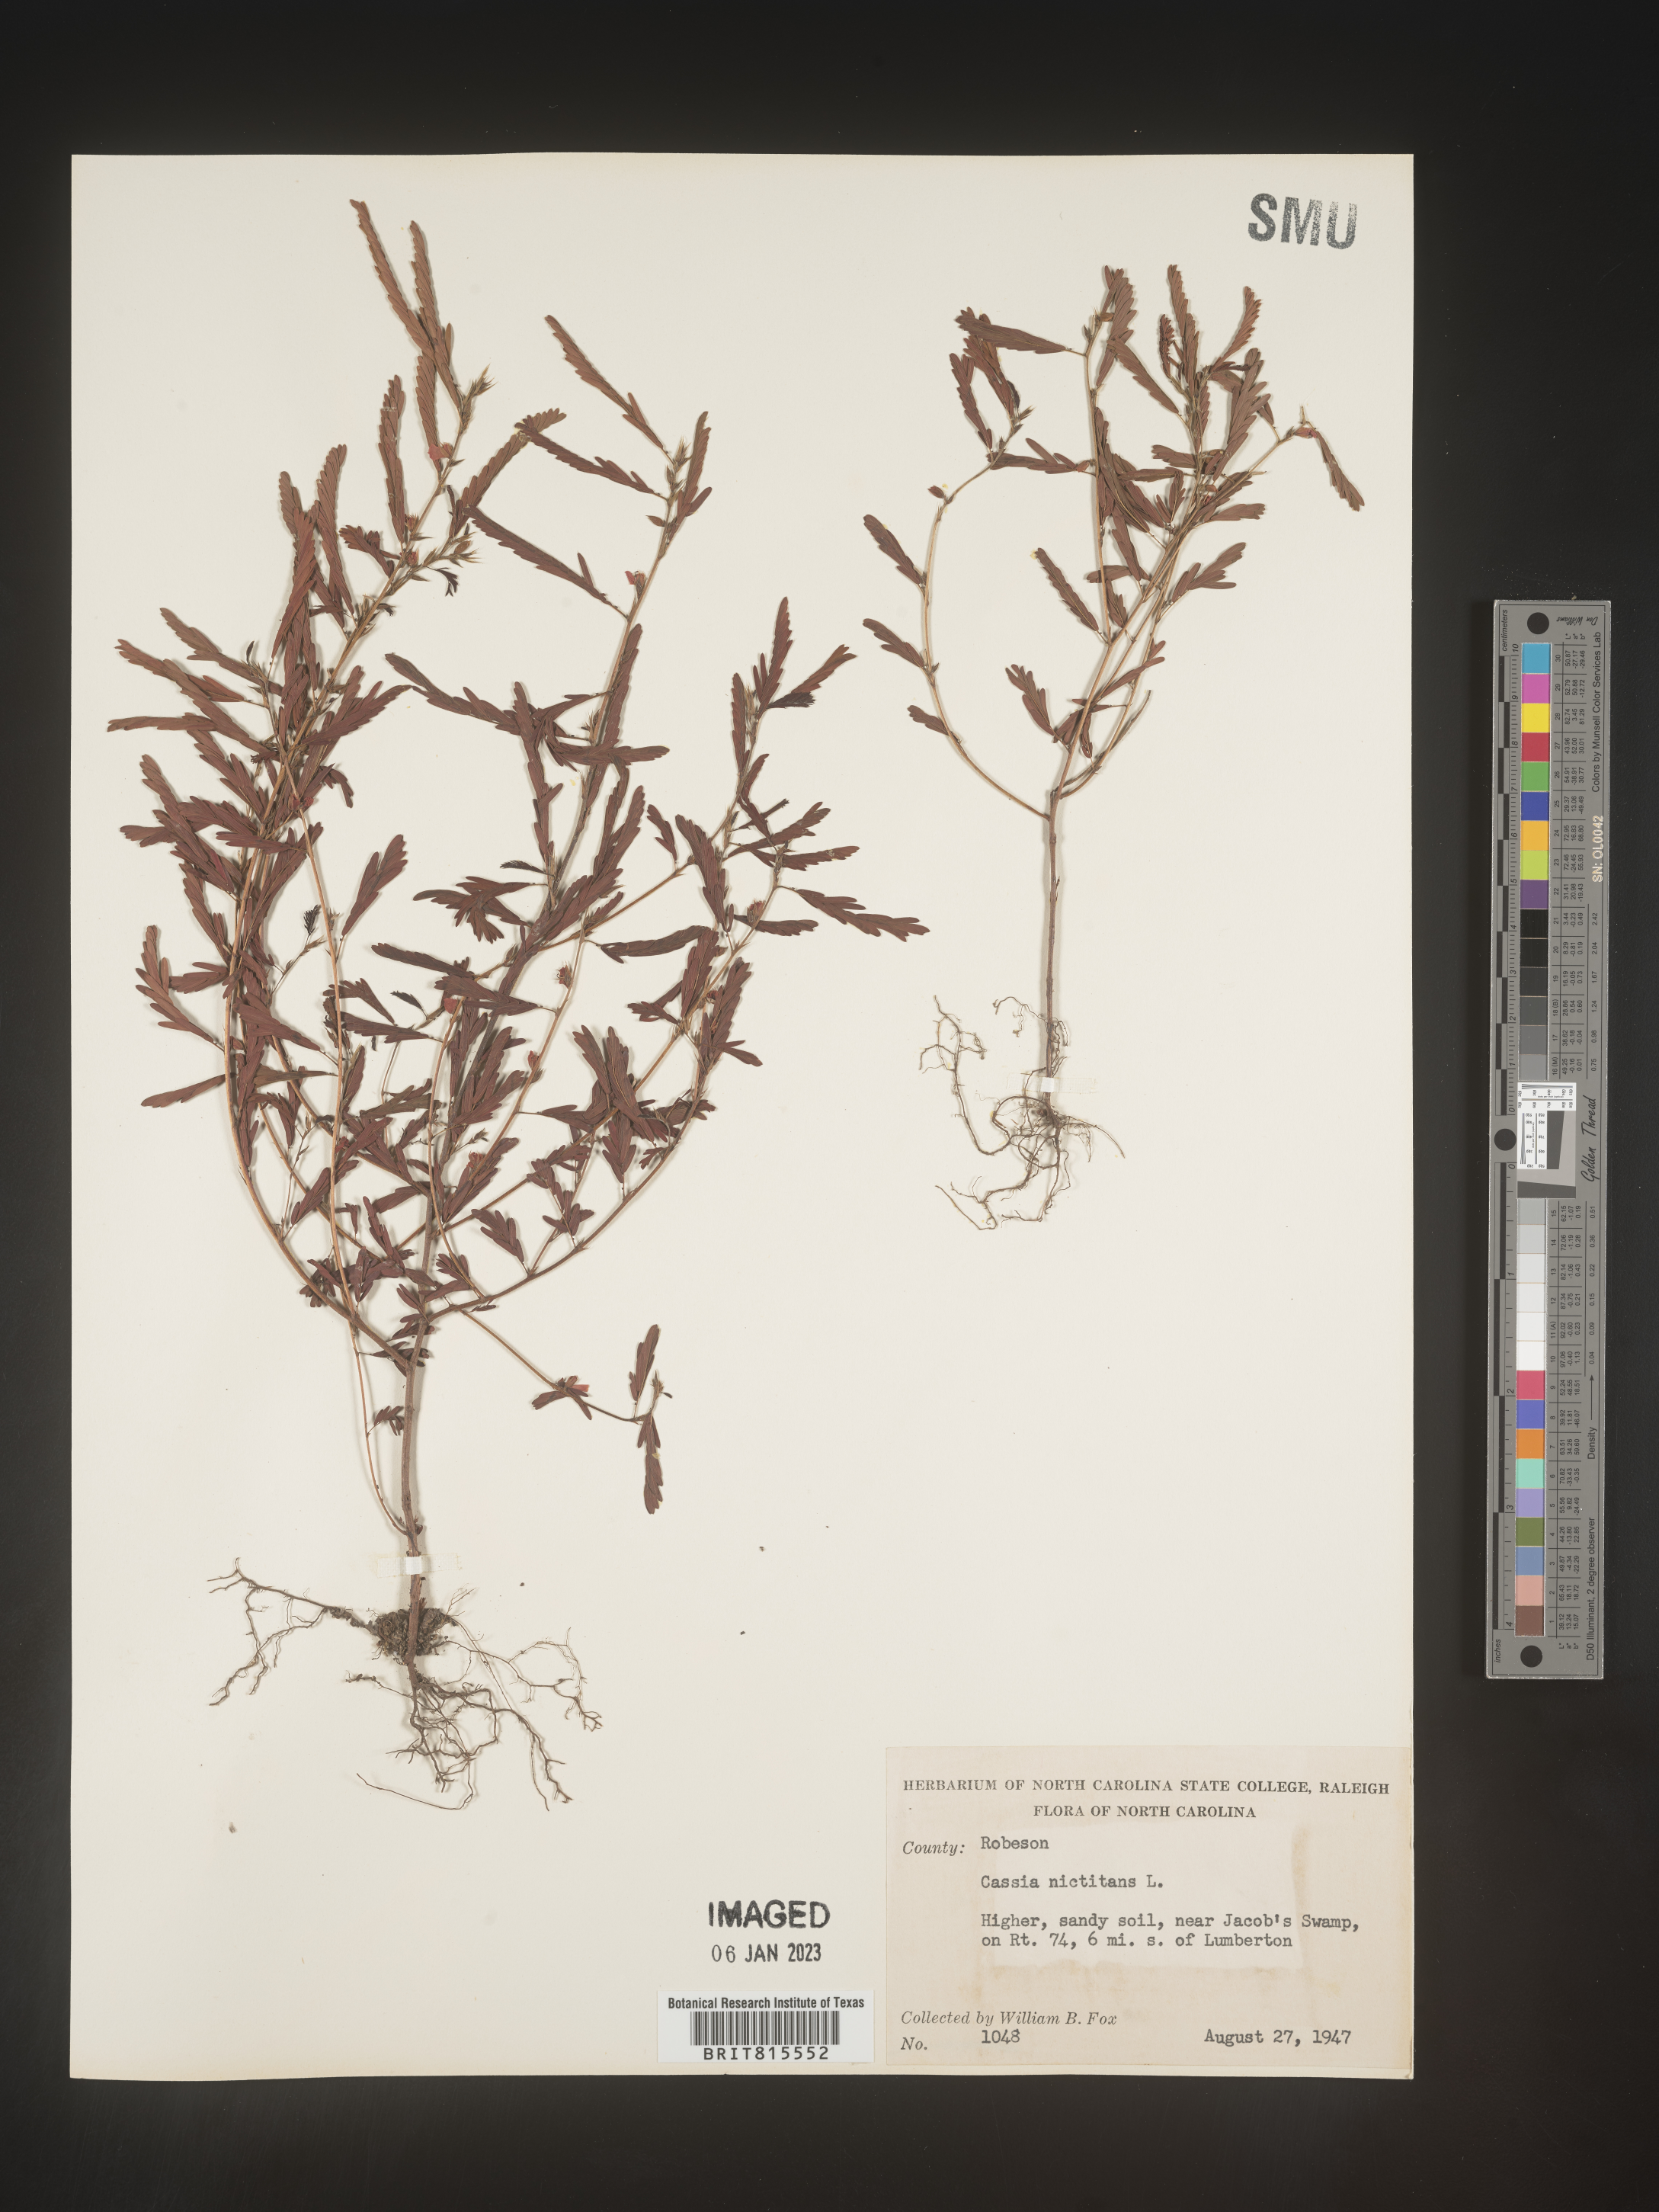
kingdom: Plantae
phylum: Tracheophyta
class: Magnoliopsida
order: Fabales
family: Fabaceae
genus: Chamaecrista
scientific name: Chamaecrista nictitans
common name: Sensitive cassia
